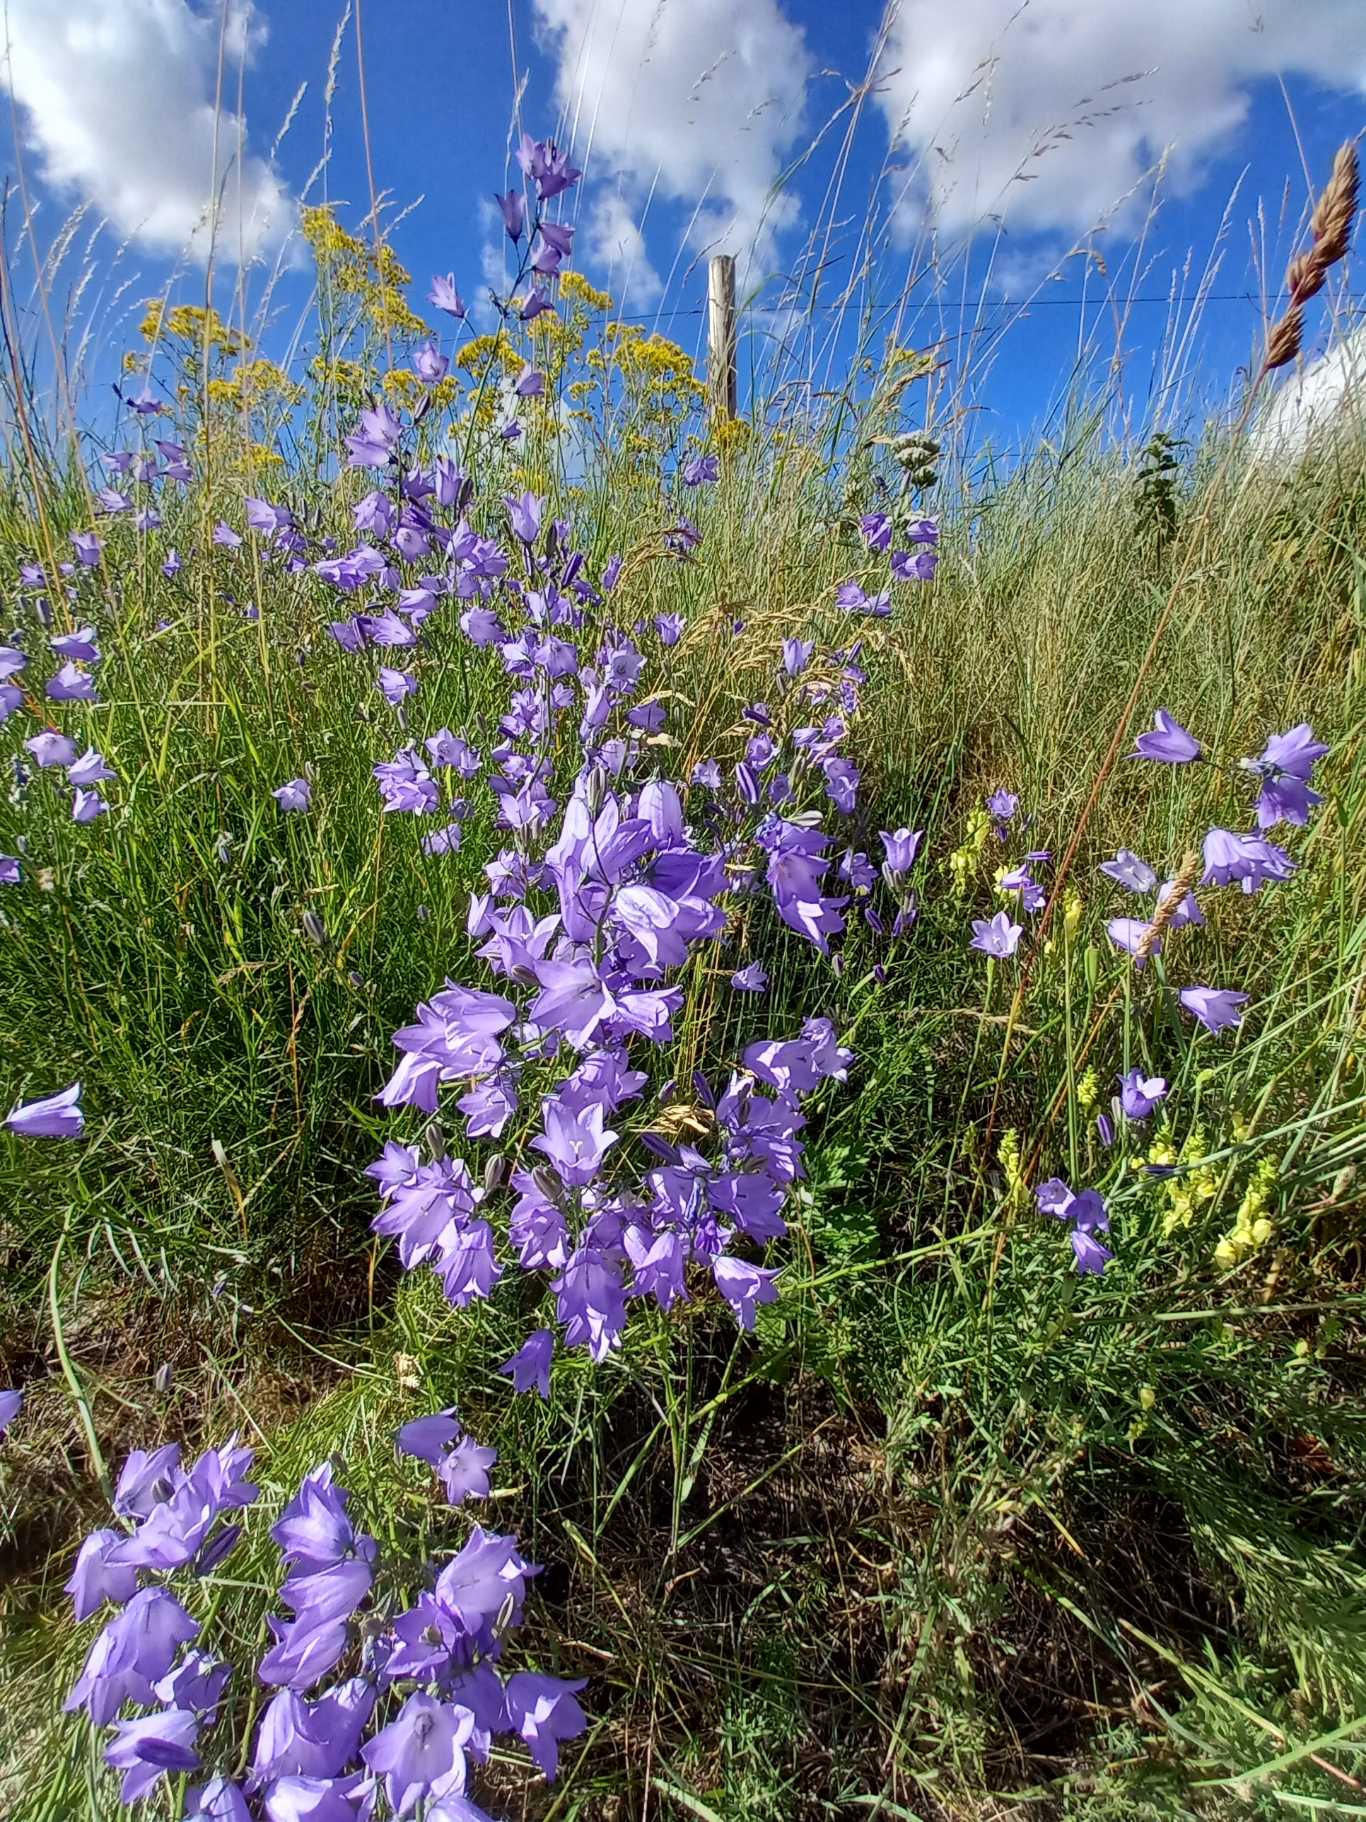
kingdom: Plantae
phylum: Tracheophyta
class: Magnoliopsida
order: Asterales
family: Campanulaceae
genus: Campanula
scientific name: Campanula rotundifolia
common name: Liden klokke
